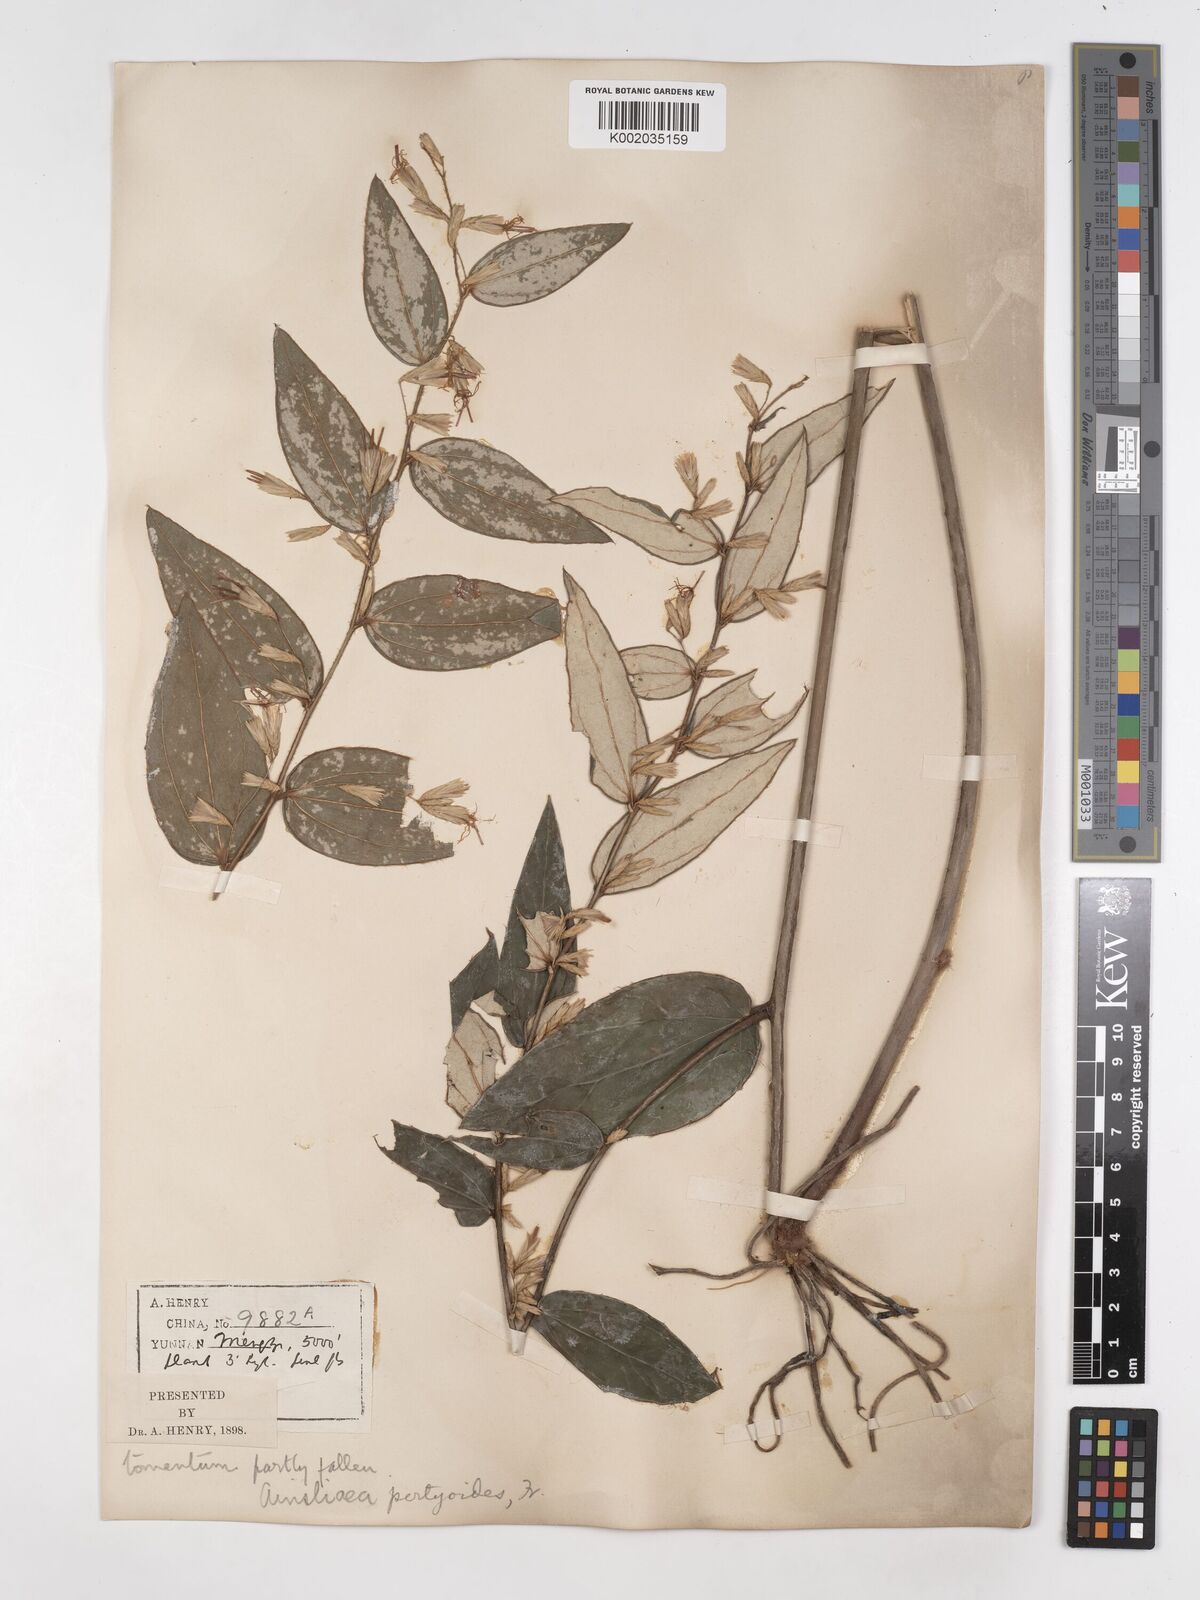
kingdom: Plantae
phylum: Tracheophyta
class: Magnoliopsida
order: Asterales
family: Asteraceae
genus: Ainsliaea
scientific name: Ainsliaea pertyoides
